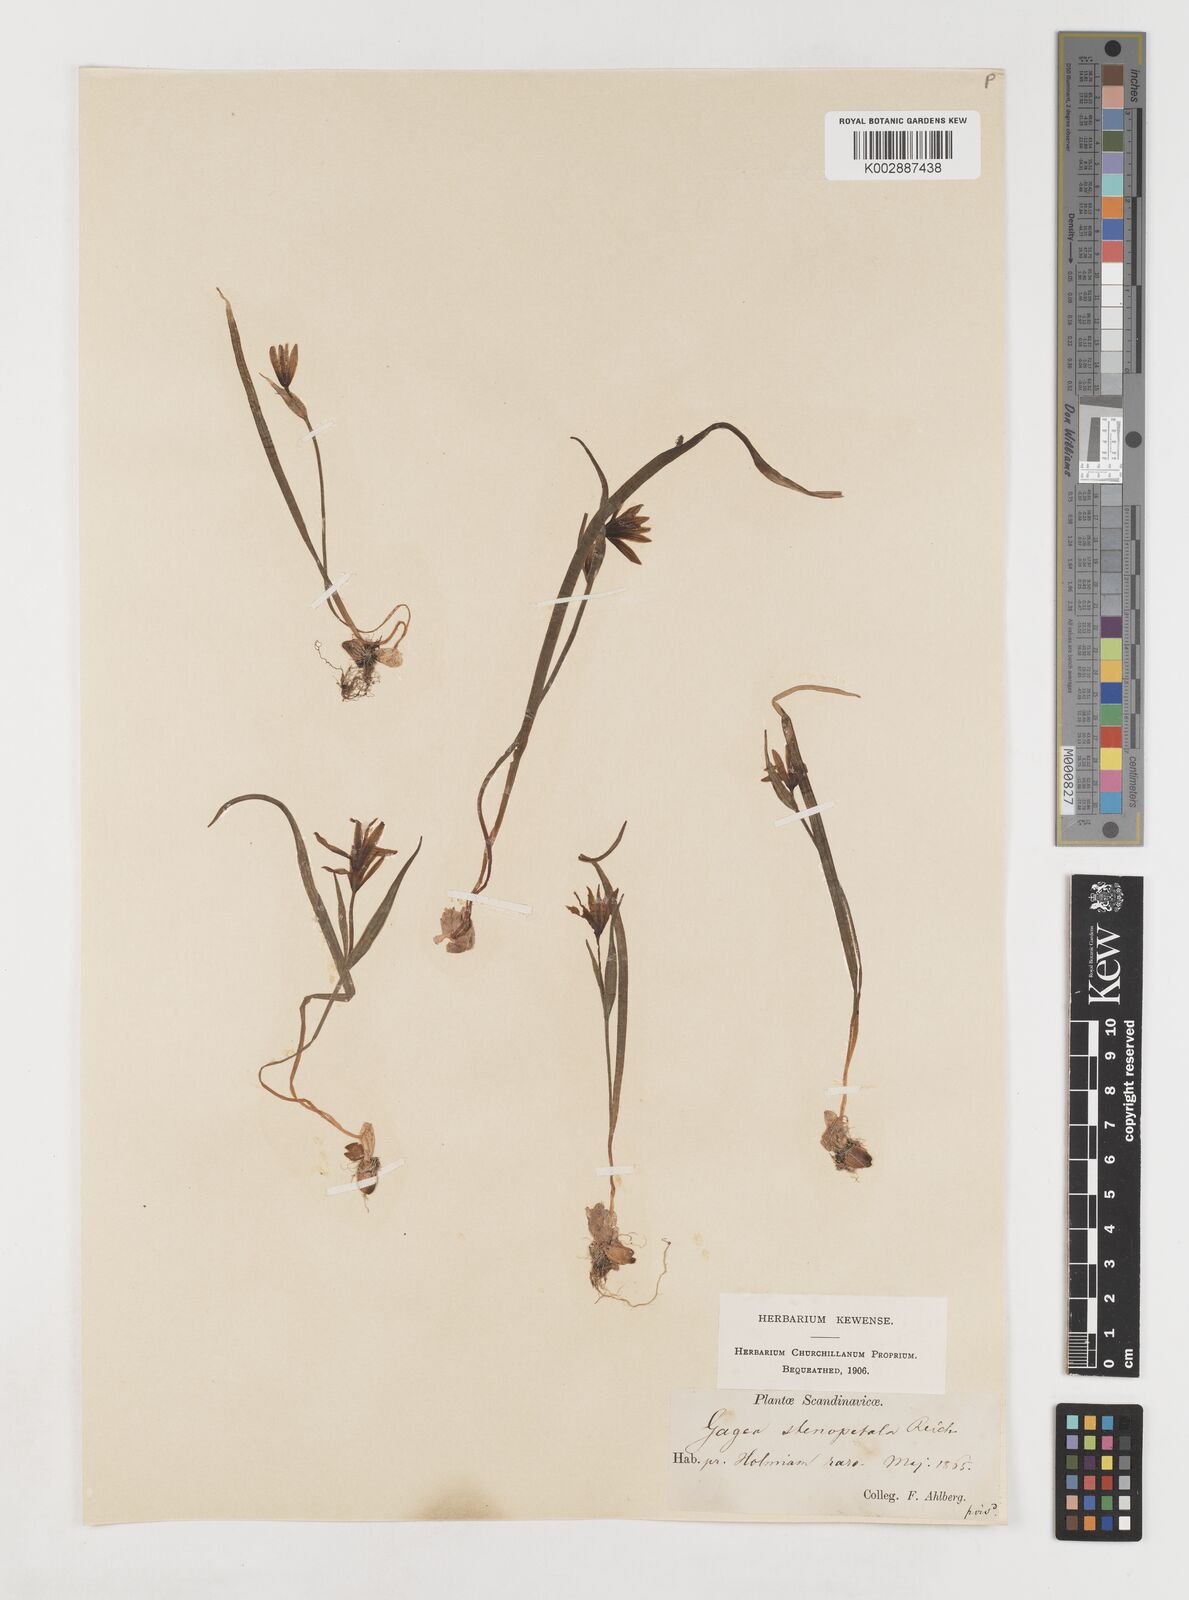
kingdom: Plantae
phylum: Tracheophyta
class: Liliopsida
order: Liliales
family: Liliaceae
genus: Gagea
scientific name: Gagea pratensis
